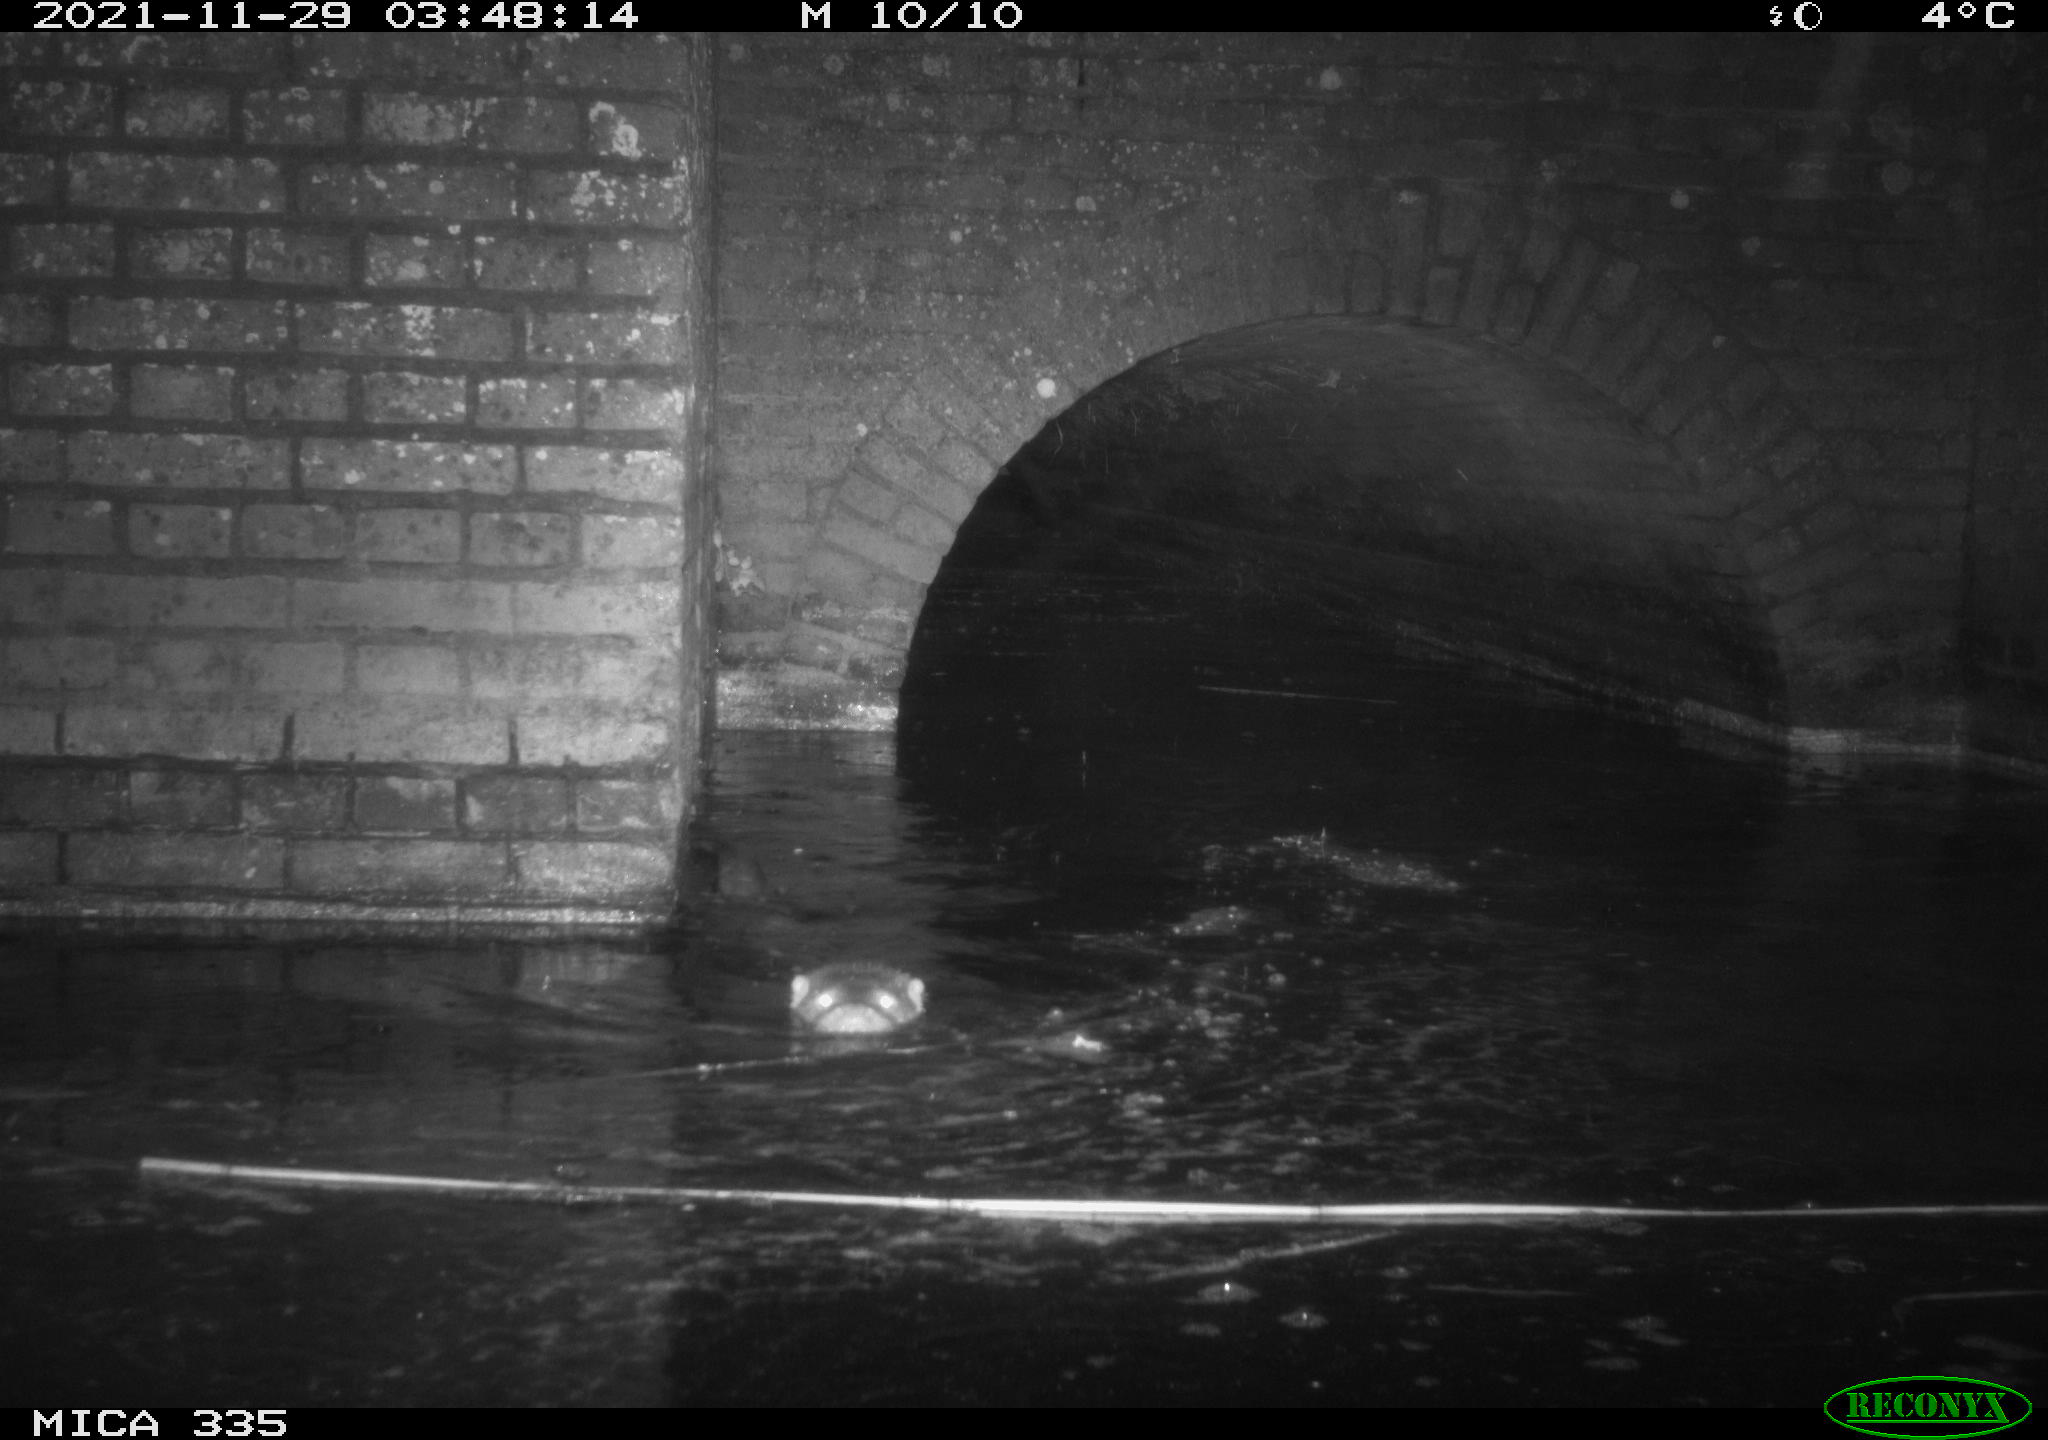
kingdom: Animalia
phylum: Chordata
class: Mammalia
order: Carnivora
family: Mustelidae
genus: Lutra
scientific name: Lutra lutra
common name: European otter
